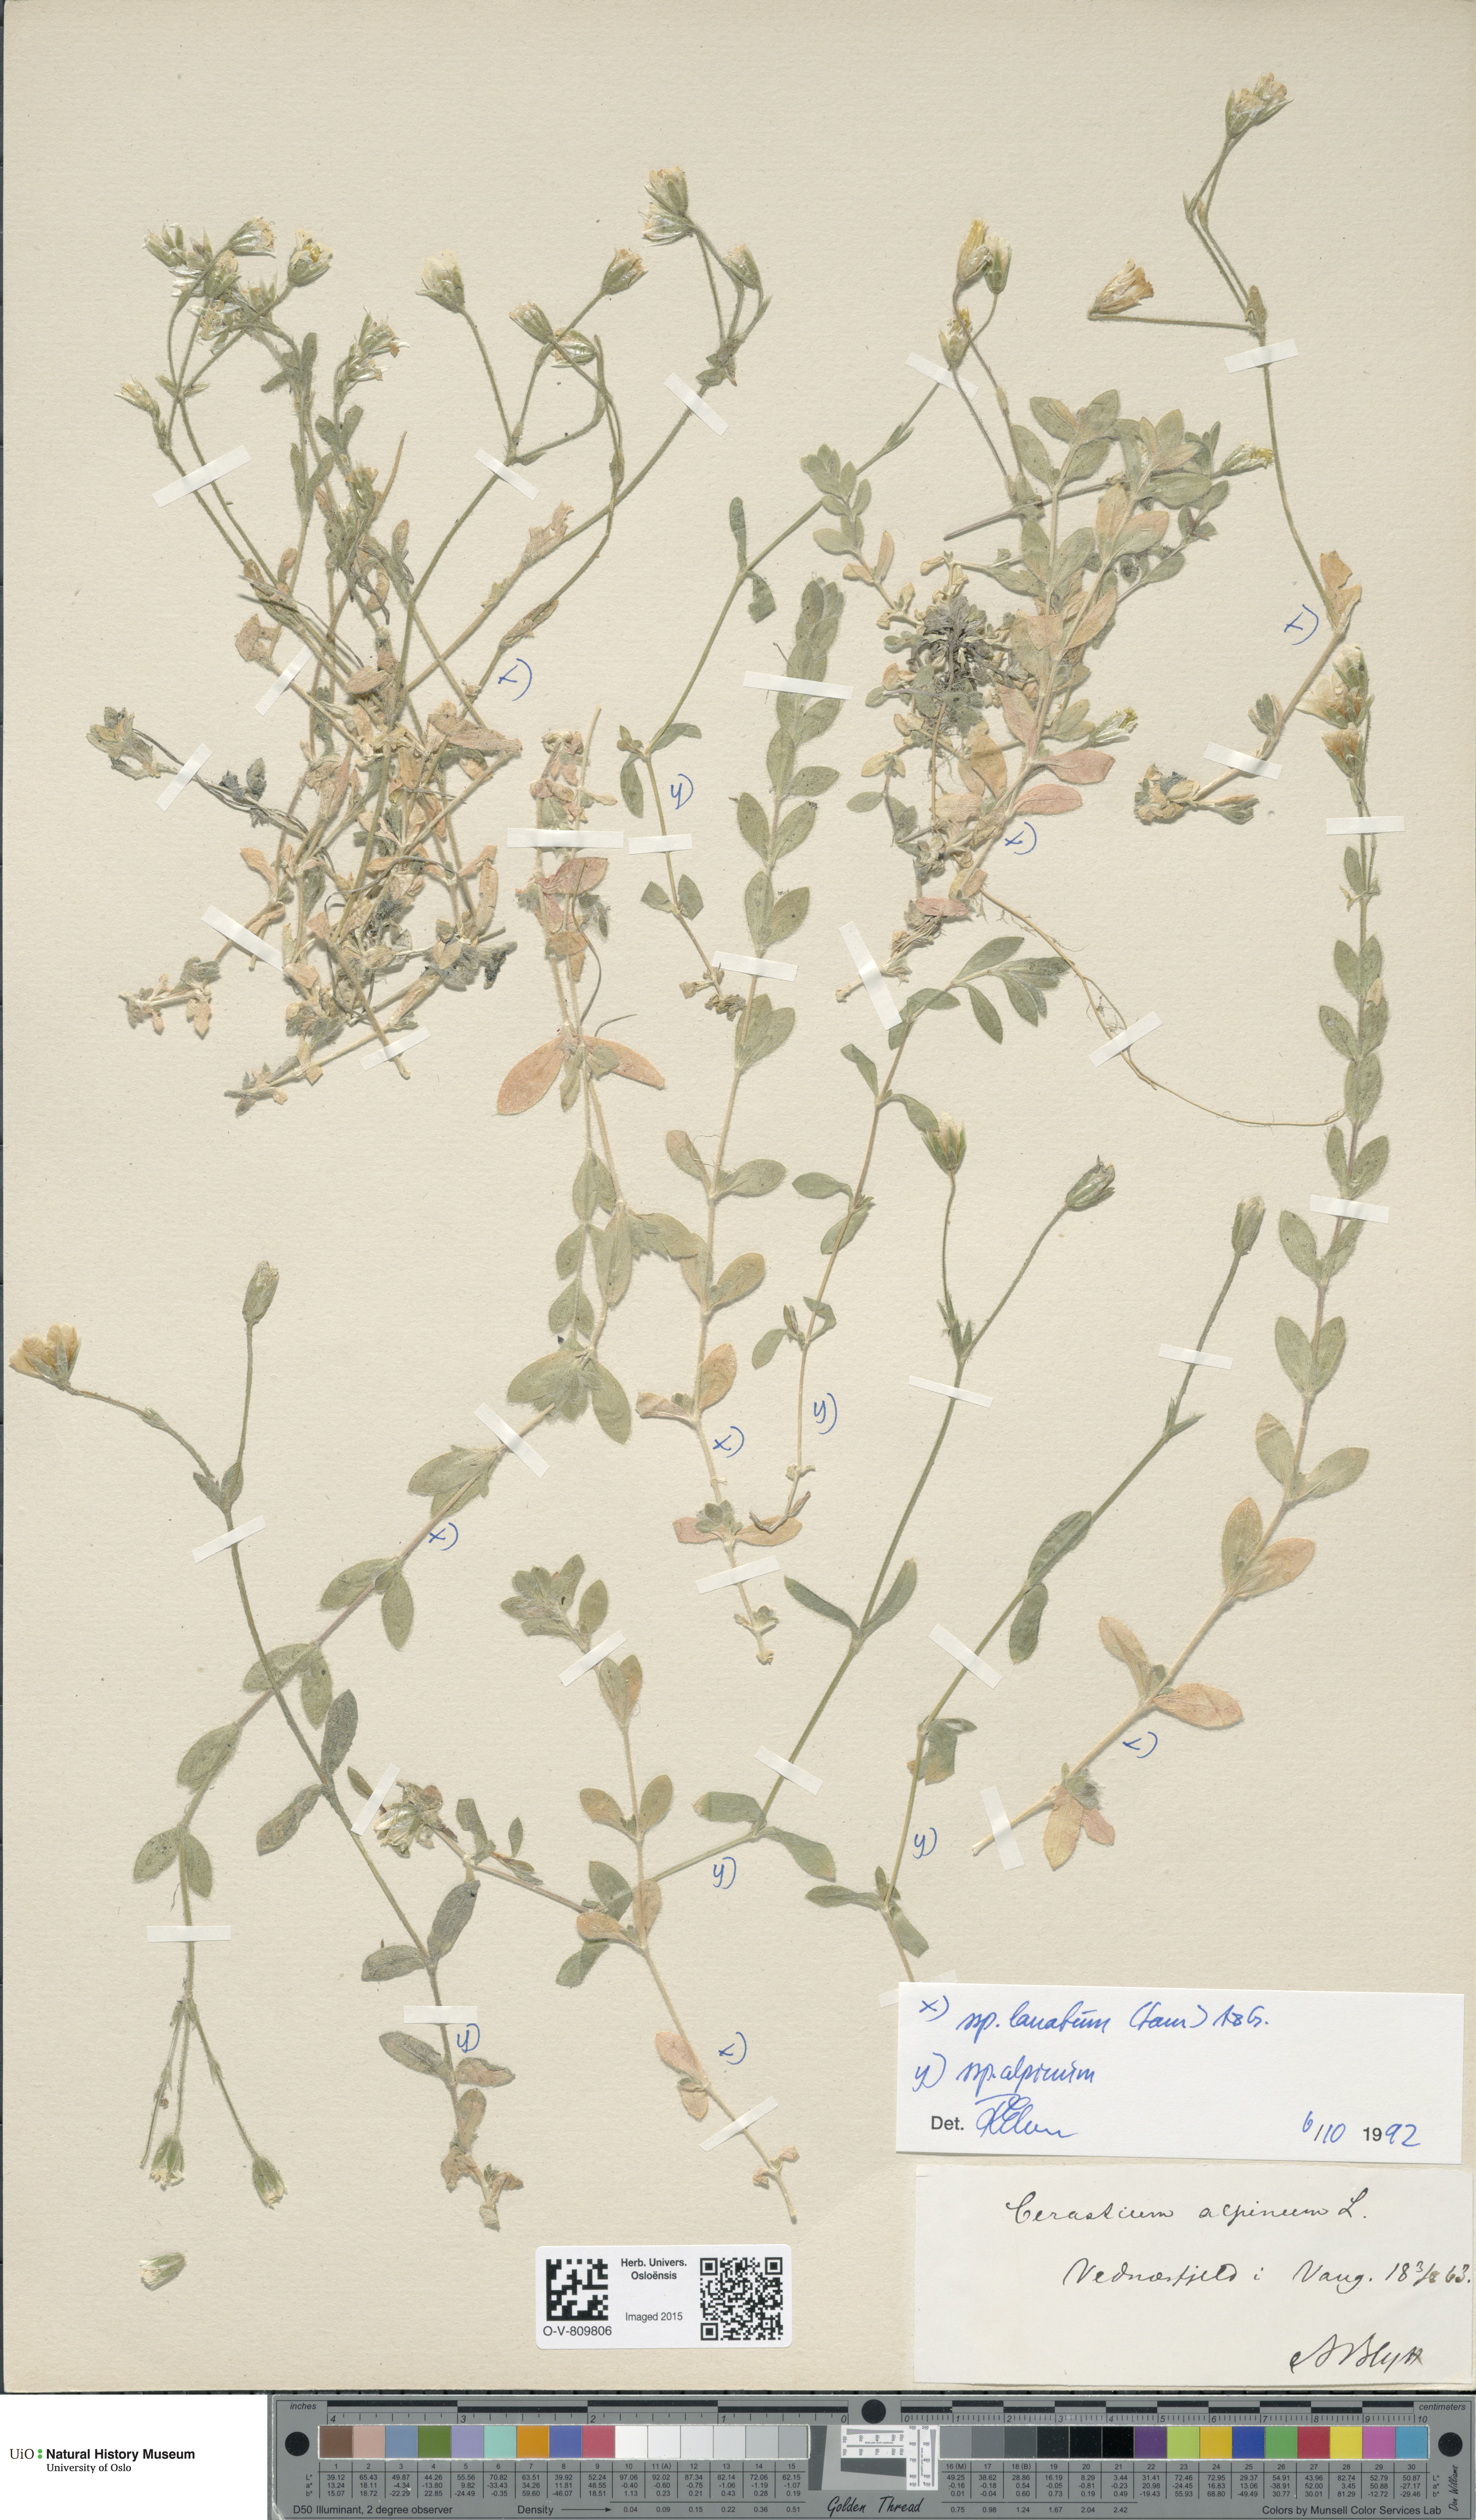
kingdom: Plantae
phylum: Tracheophyta
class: Magnoliopsida
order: Caryophyllales
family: Caryophyllaceae
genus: Cerastium
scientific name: Cerastium alpinum
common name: Alpine mouse-ear
